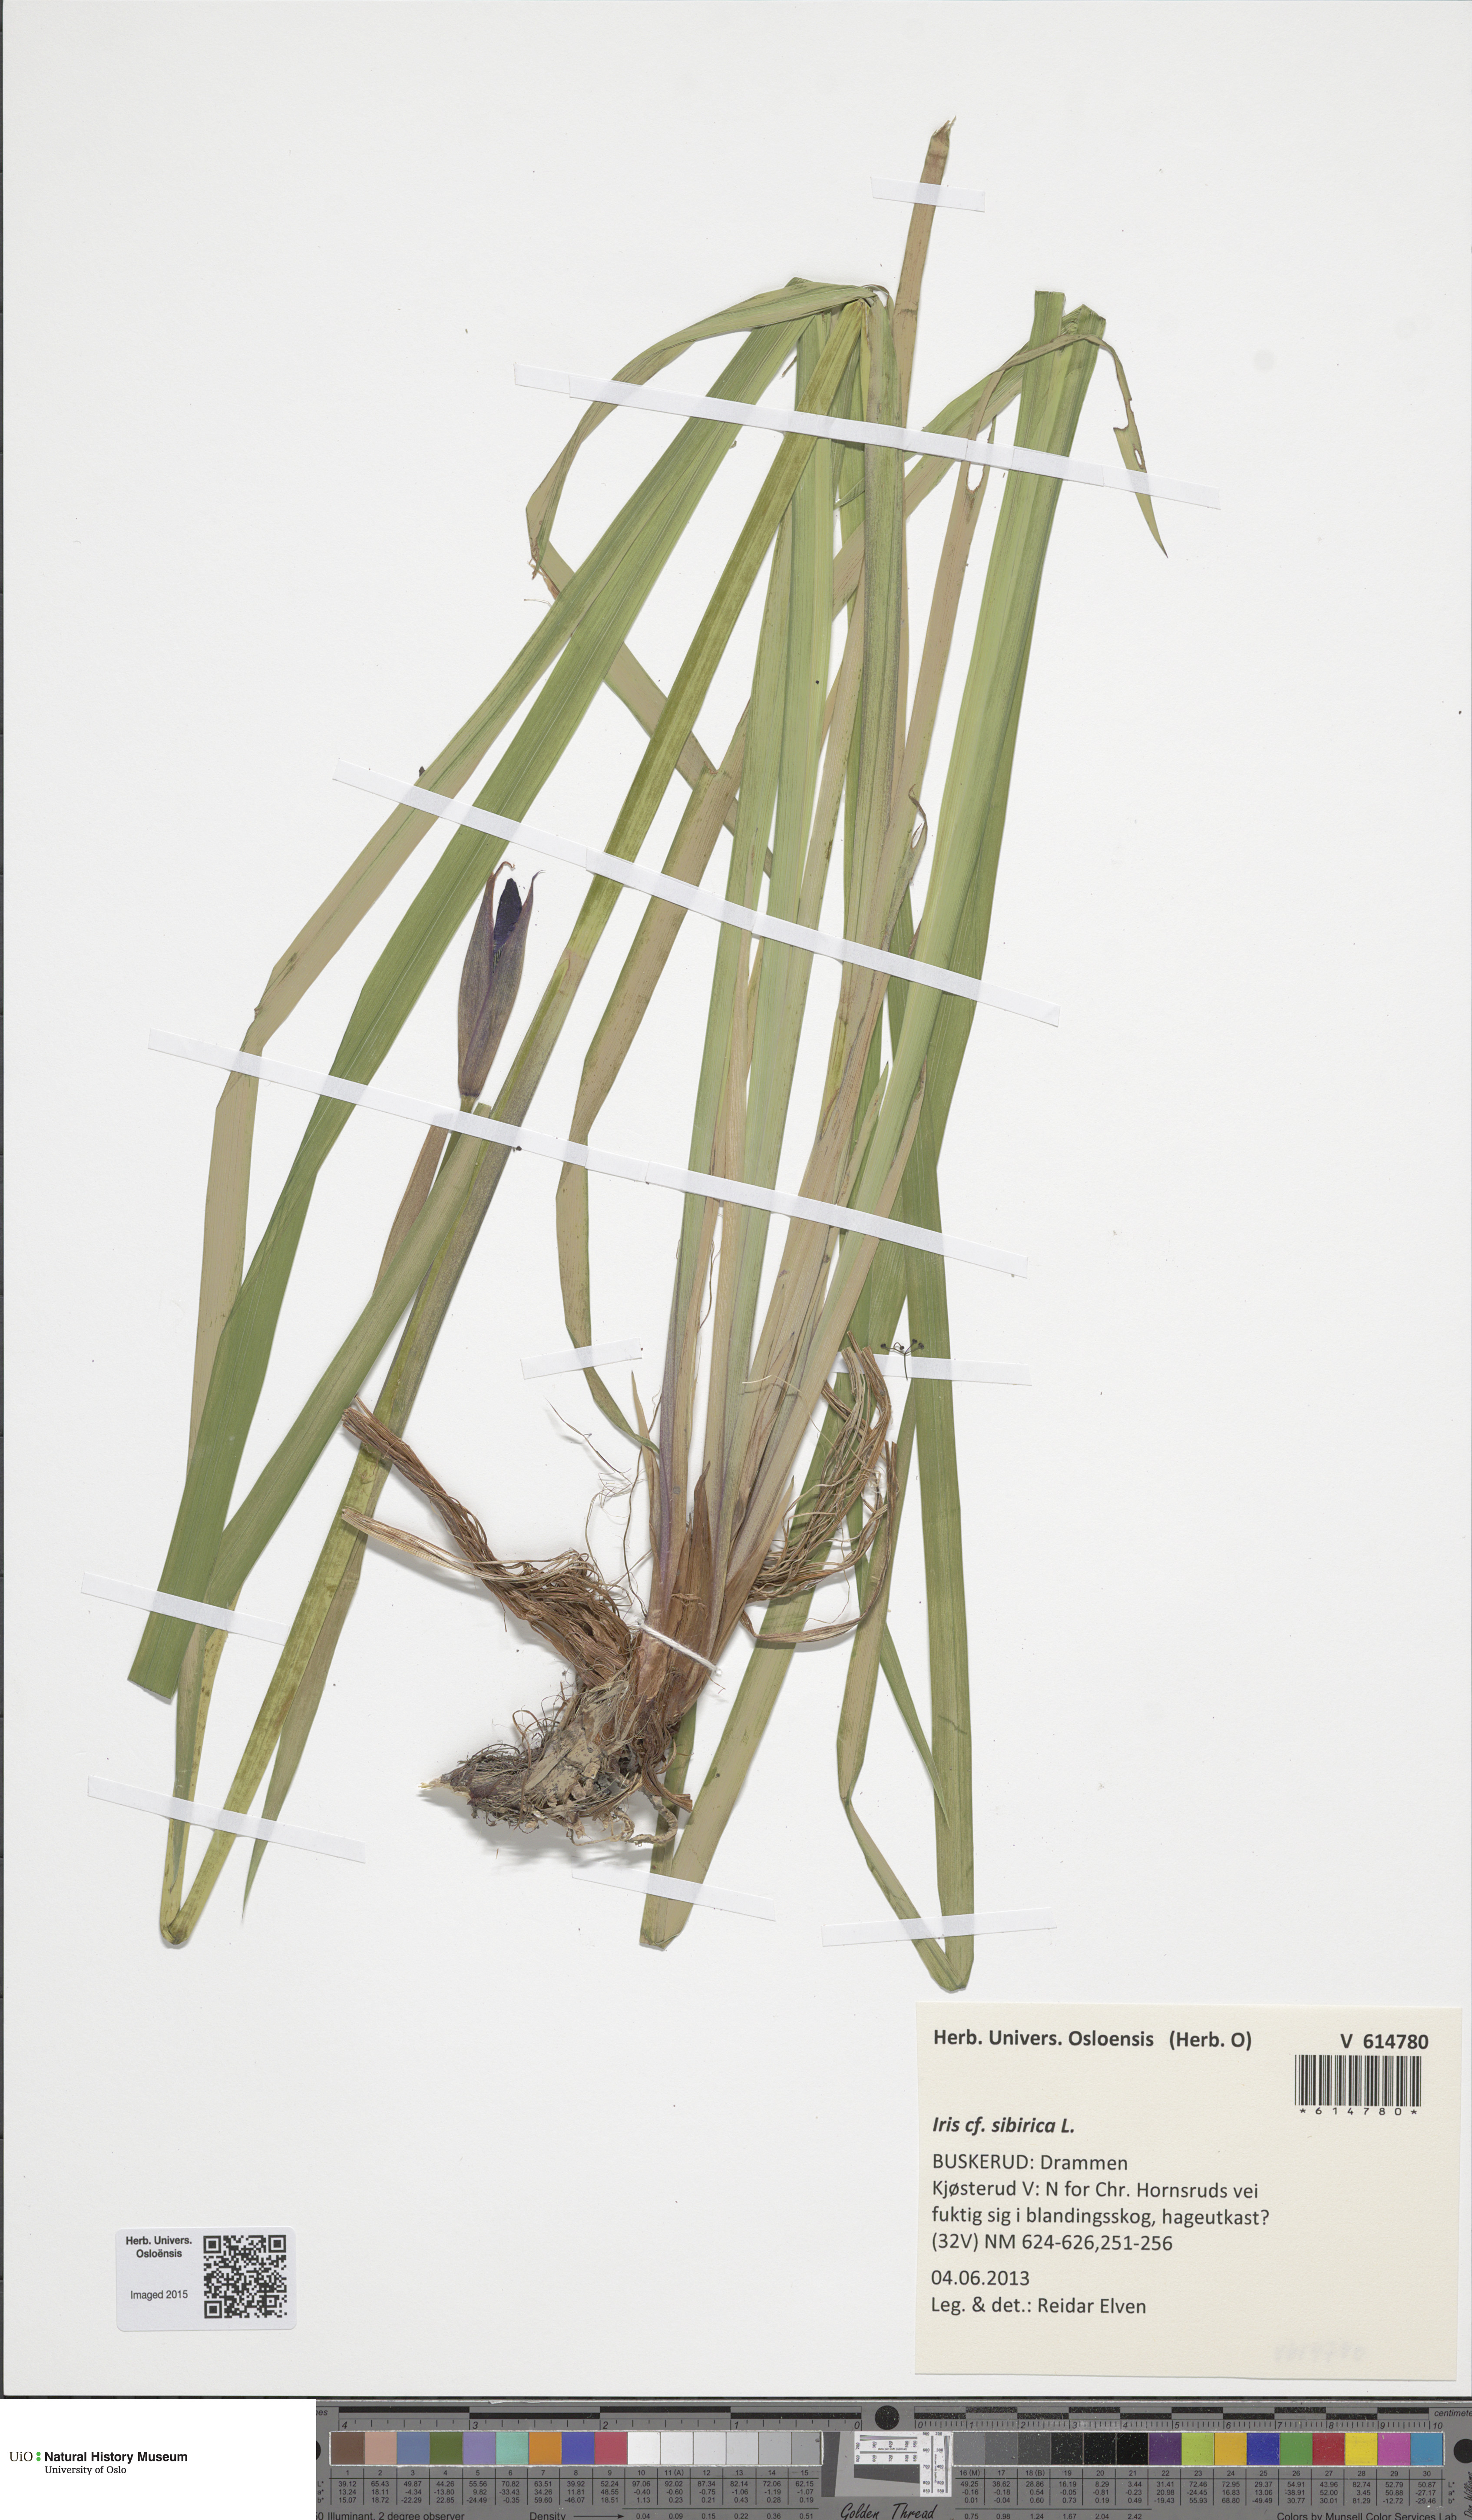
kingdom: Plantae
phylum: Tracheophyta
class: Liliopsida
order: Asparagales
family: Iridaceae
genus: Iris
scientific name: Iris sibirica
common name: Siberian iris
